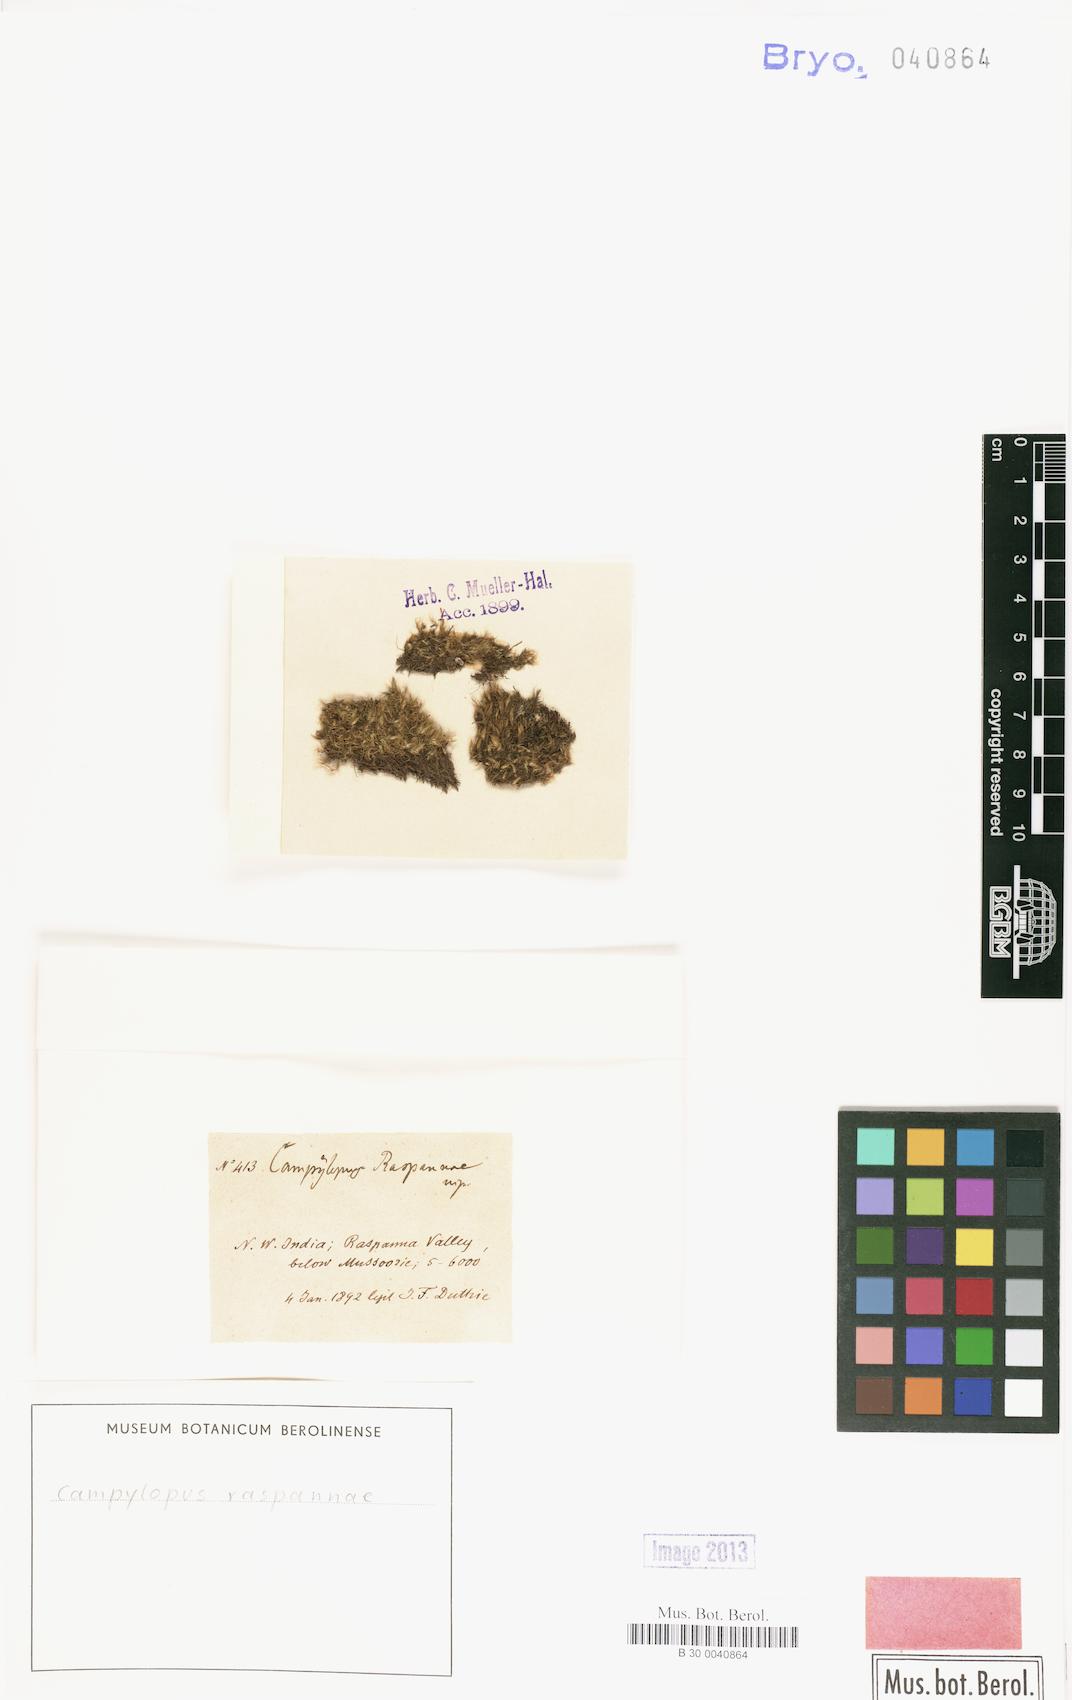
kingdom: Plantae
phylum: Bryophyta
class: Bryopsida
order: Dicranales
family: Dicranaceae
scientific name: Dicranaceae
